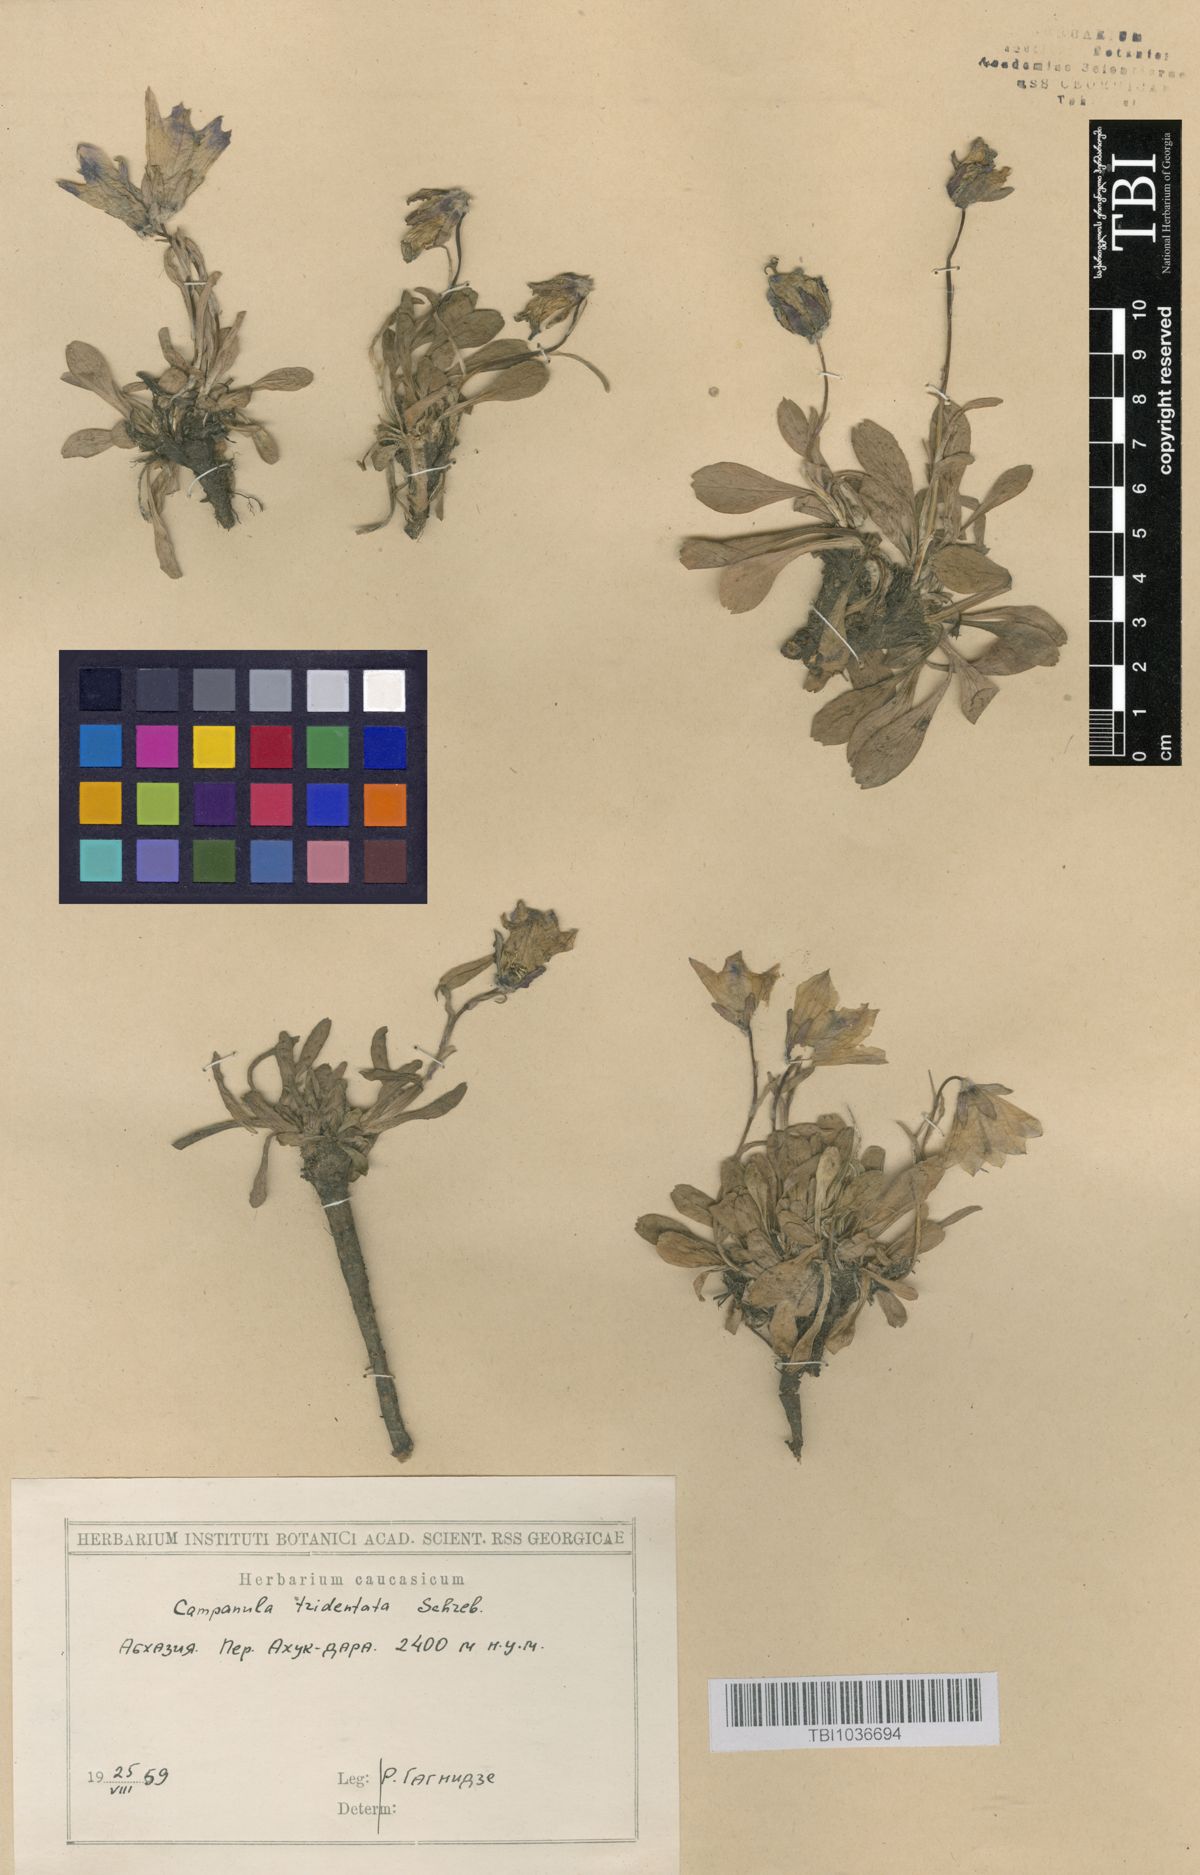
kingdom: Plantae
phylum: Tracheophyta
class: Magnoliopsida
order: Asterales
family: Campanulaceae
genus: Campanula
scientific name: Campanula tridentata
